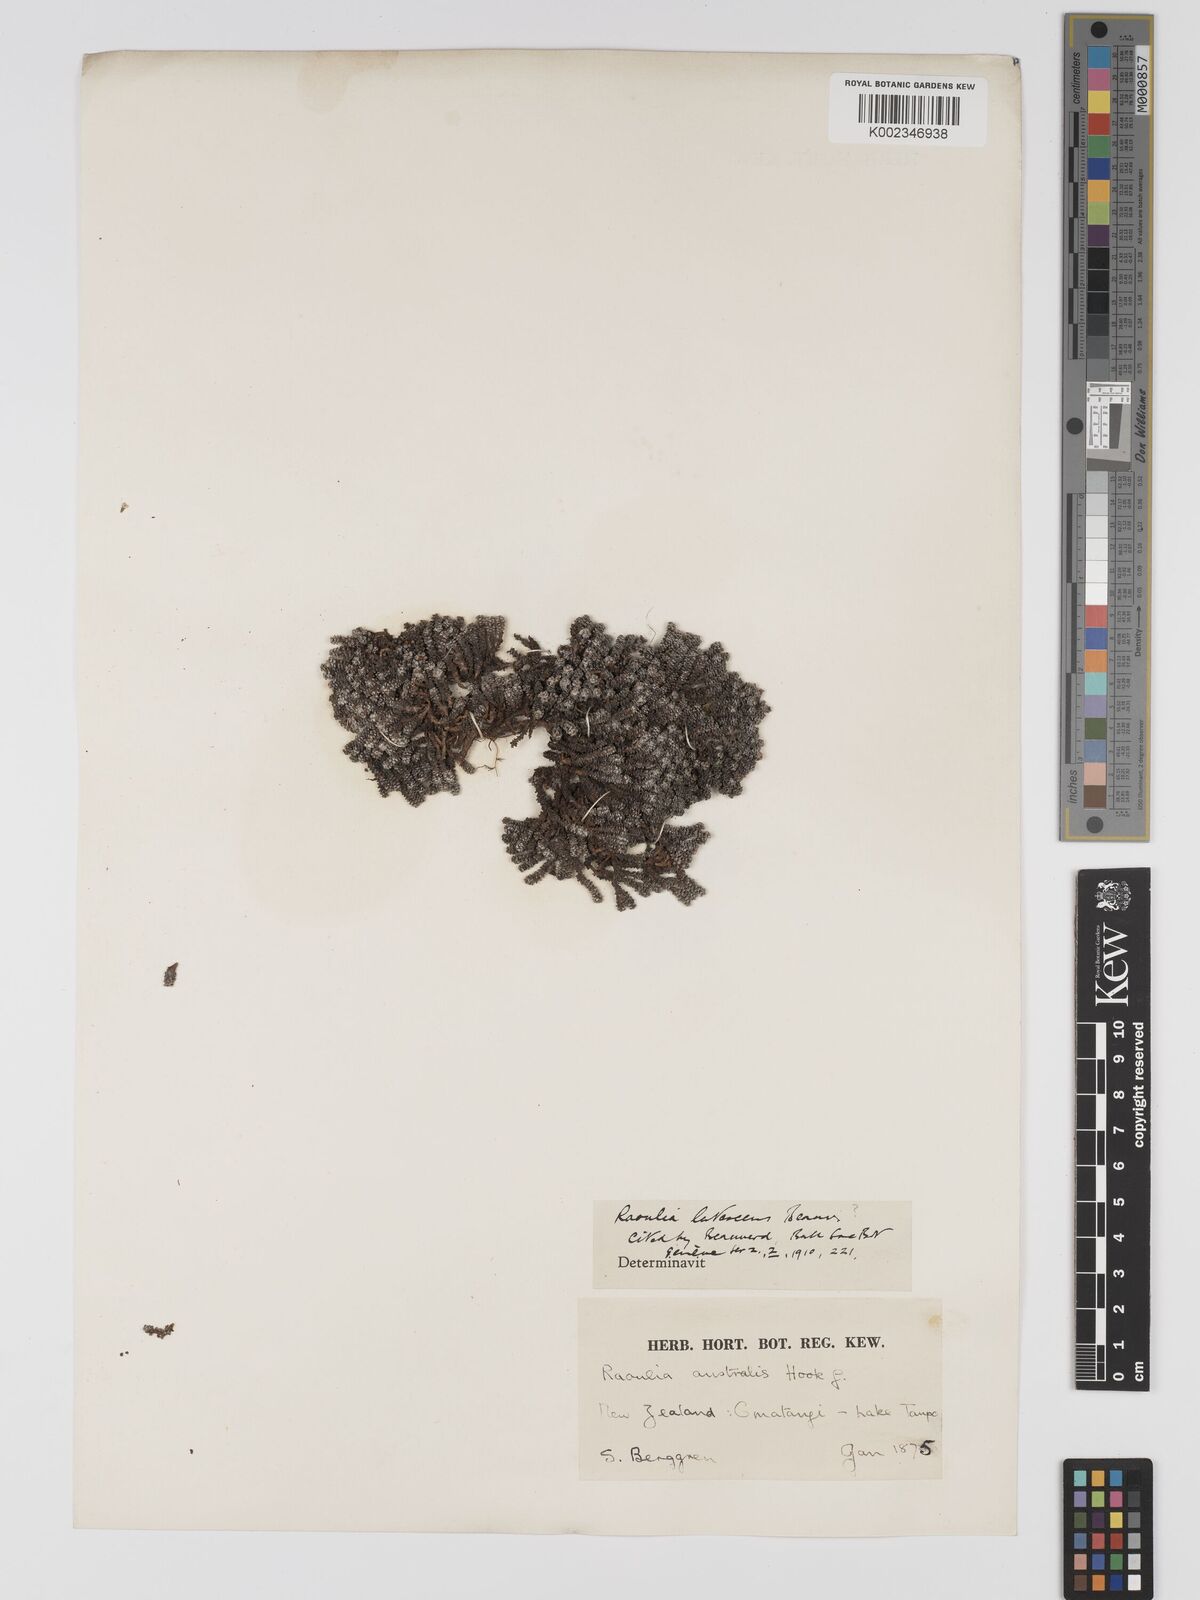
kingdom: Plantae
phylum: Tracheophyta
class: Magnoliopsida
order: Asterales
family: Asteraceae
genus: Raoulia
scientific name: Raoulia
